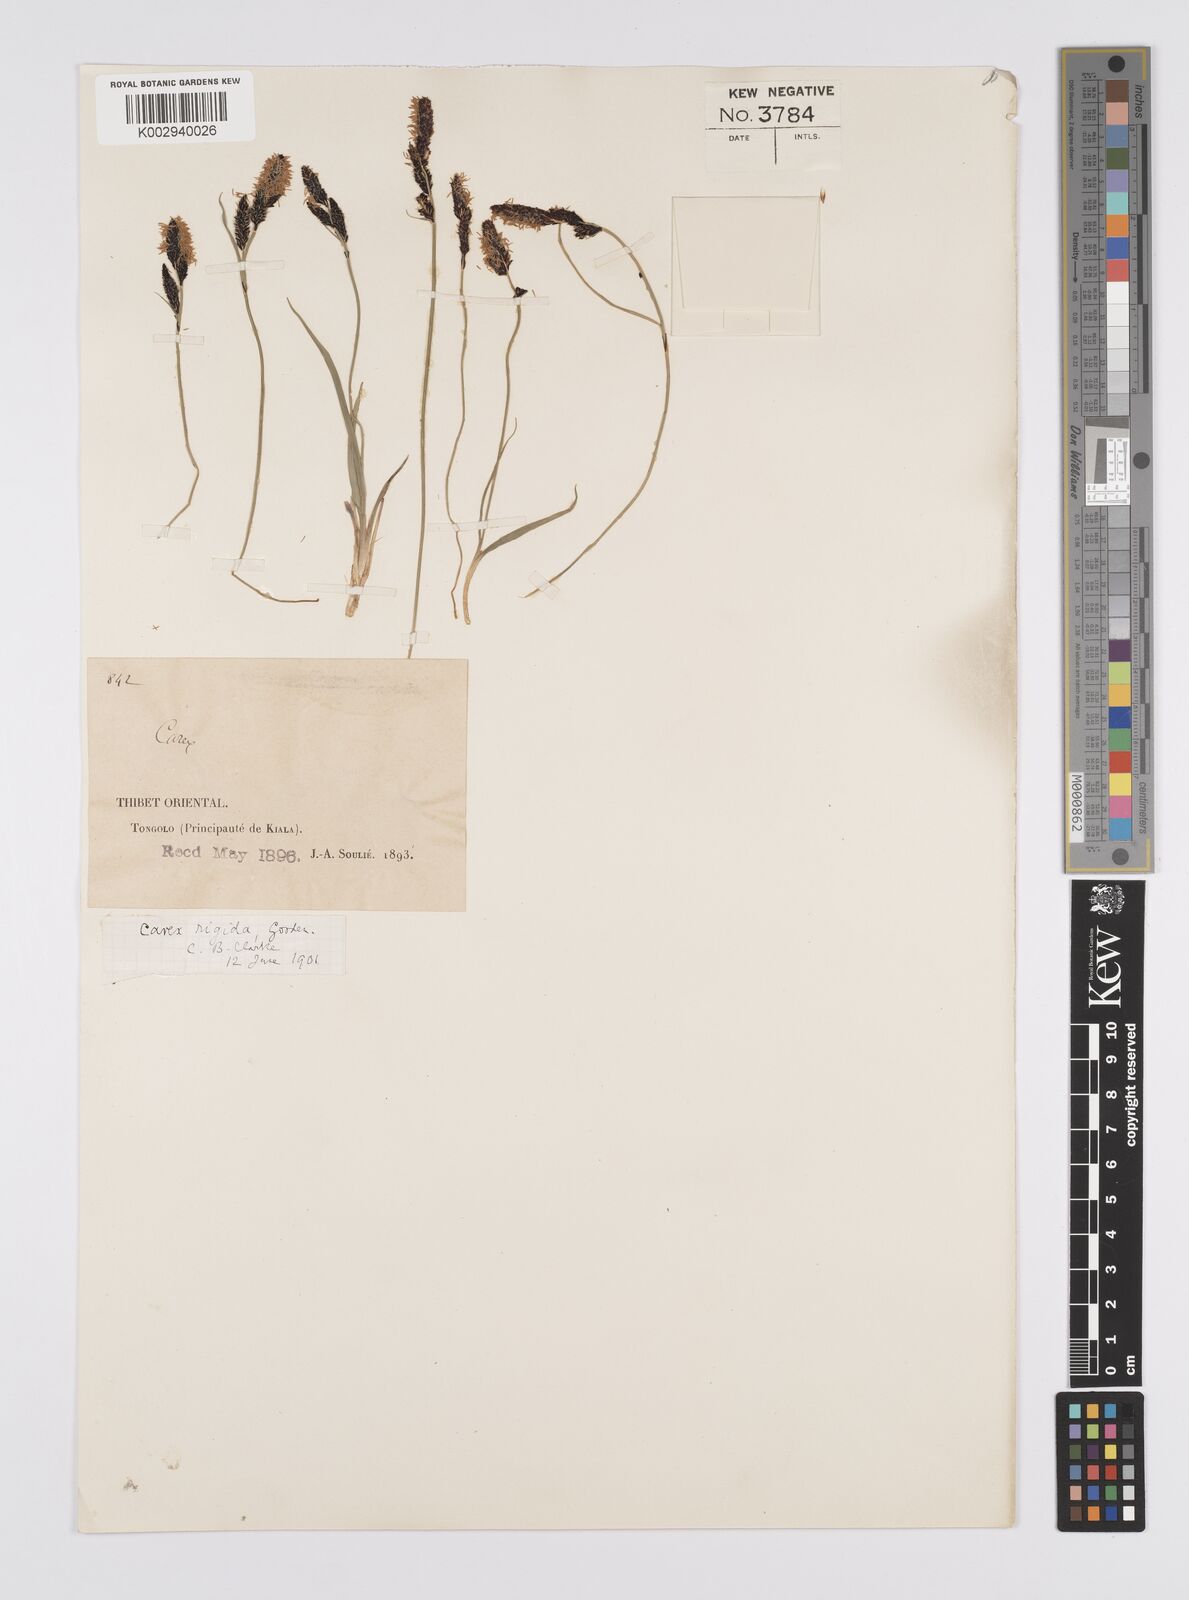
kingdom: Plantae
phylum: Tracheophyta
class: Liliopsida
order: Poales
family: Cyperaceae
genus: Carex
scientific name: Carex dacica
